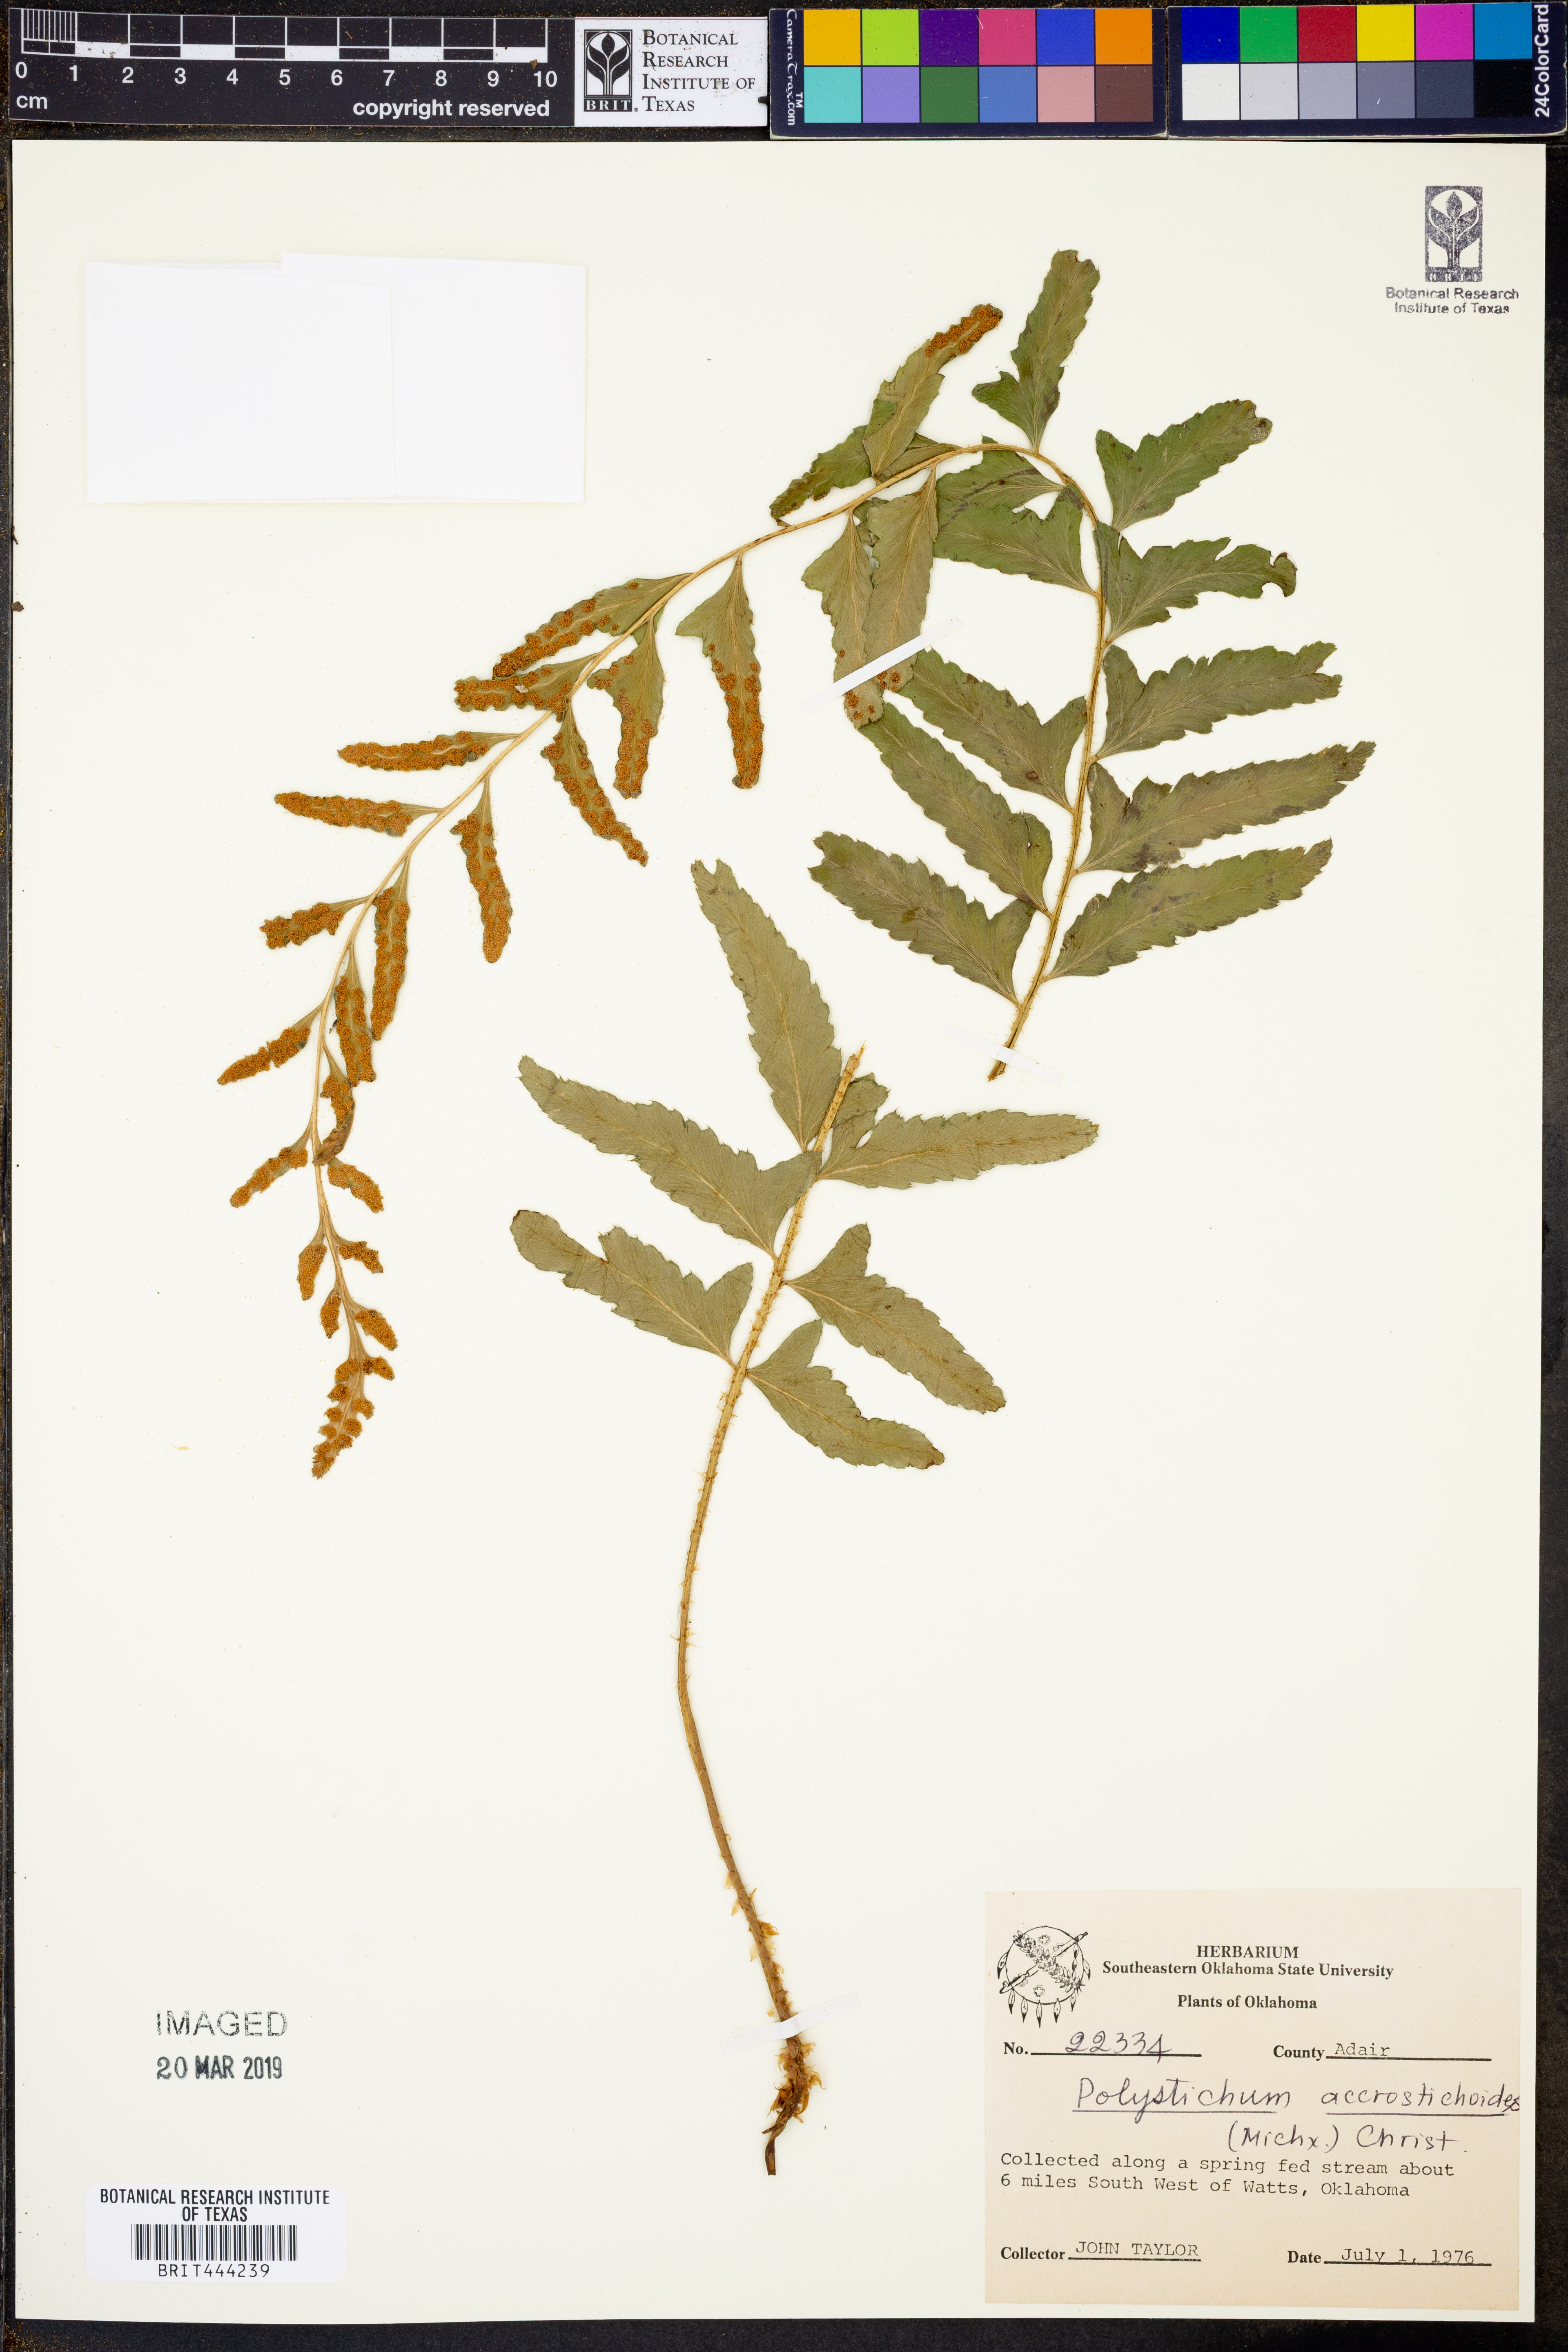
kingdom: Plantae
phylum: Tracheophyta
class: Polypodiopsida
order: Polypodiales
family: Dryopteridaceae
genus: Polystichum
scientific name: Polystichum acrostichoides
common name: Christmas fern
